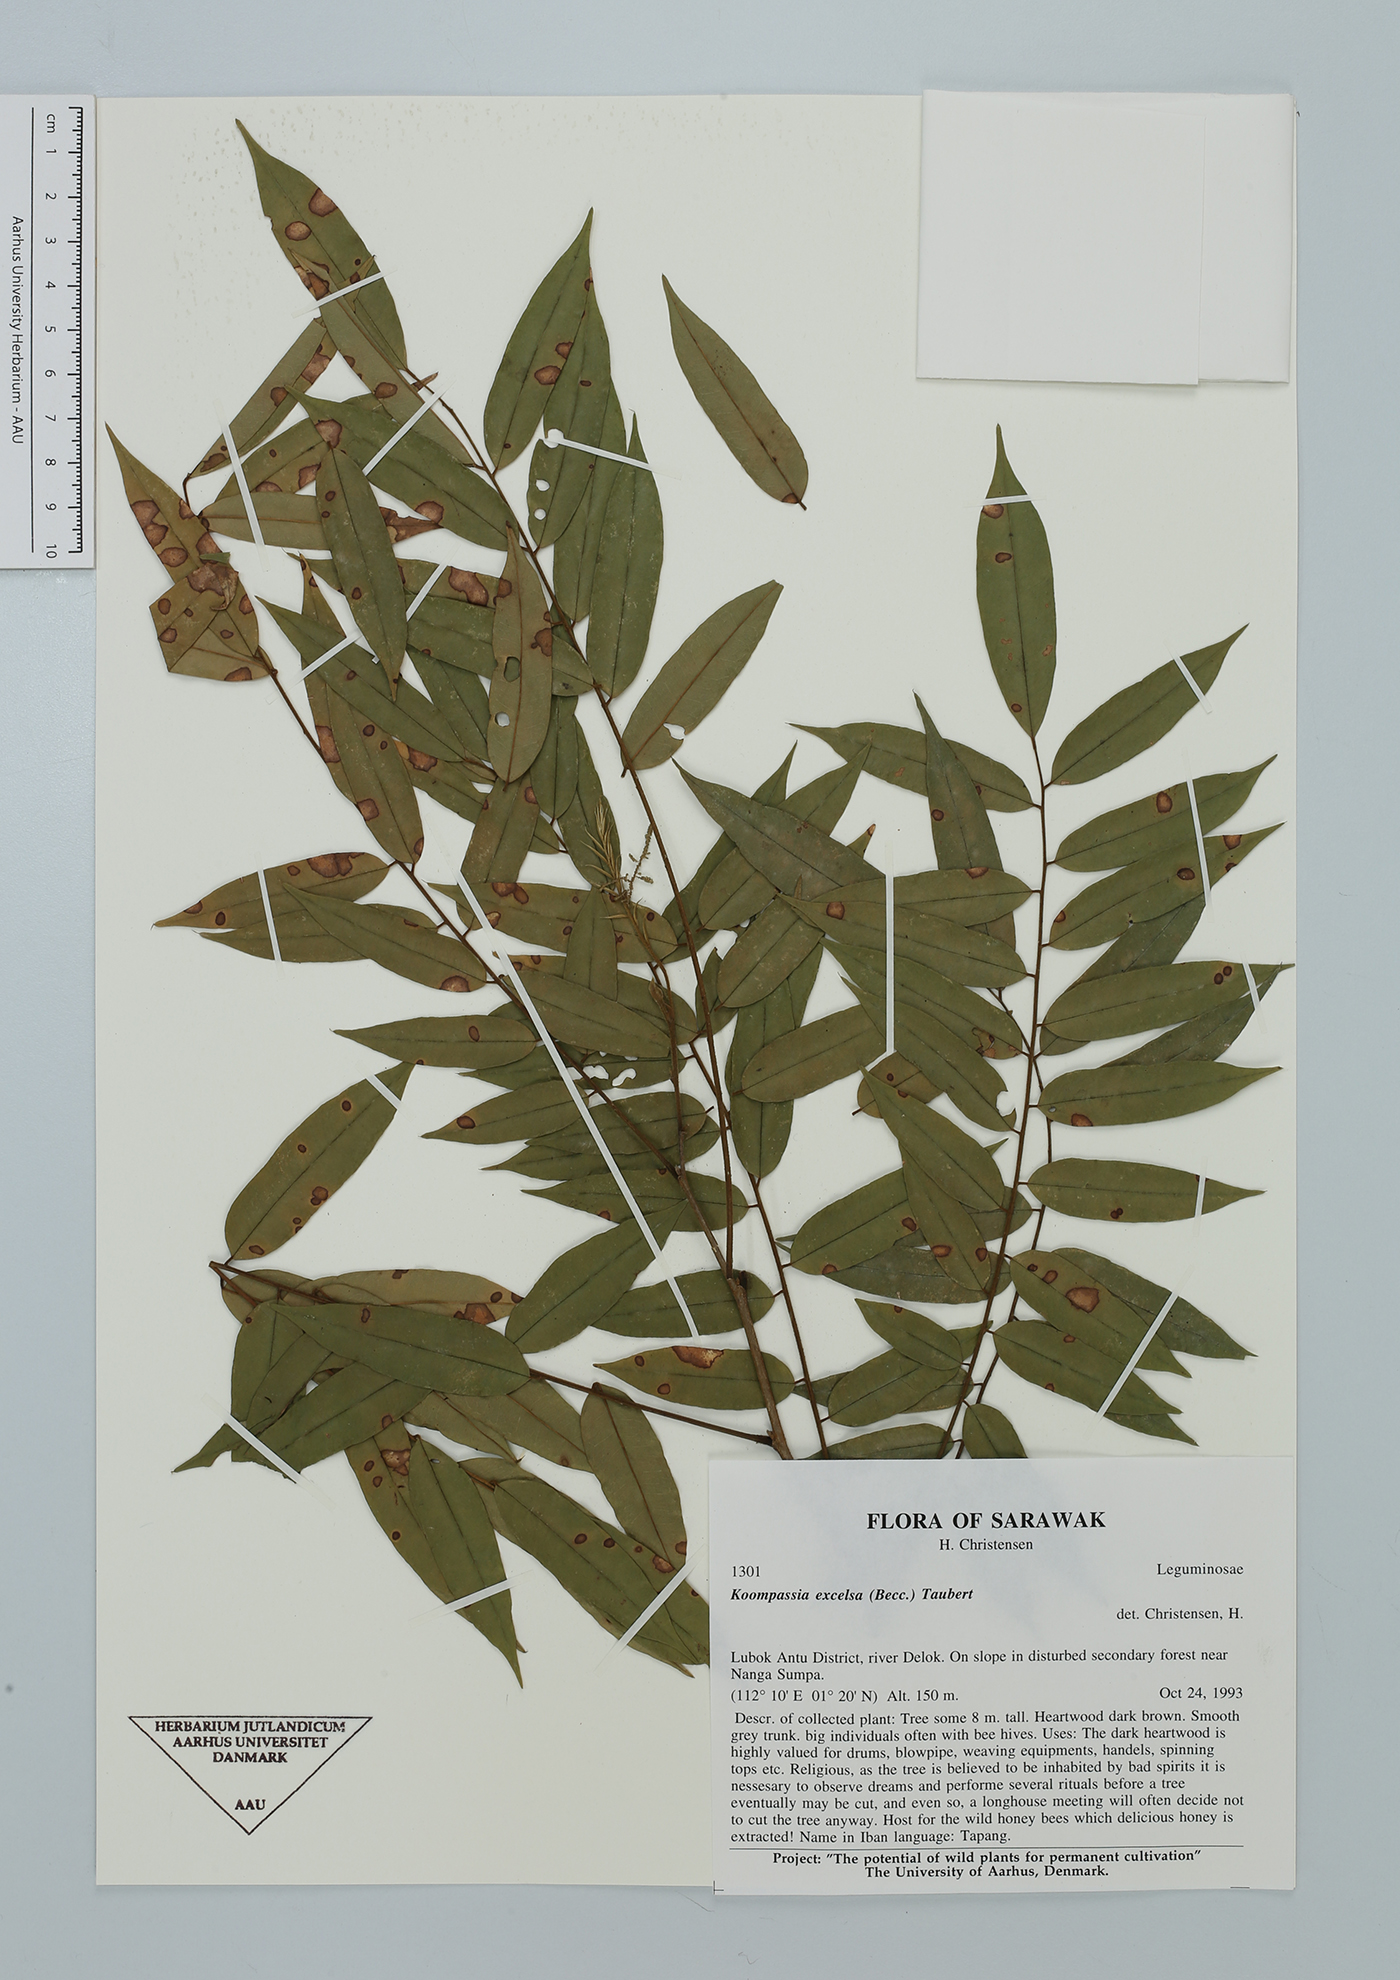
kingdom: Plantae
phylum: Tracheophyta
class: Magnoliopsida
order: Fabales
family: Fabaceae
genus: Koompassia
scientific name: Koompassia excelsa
